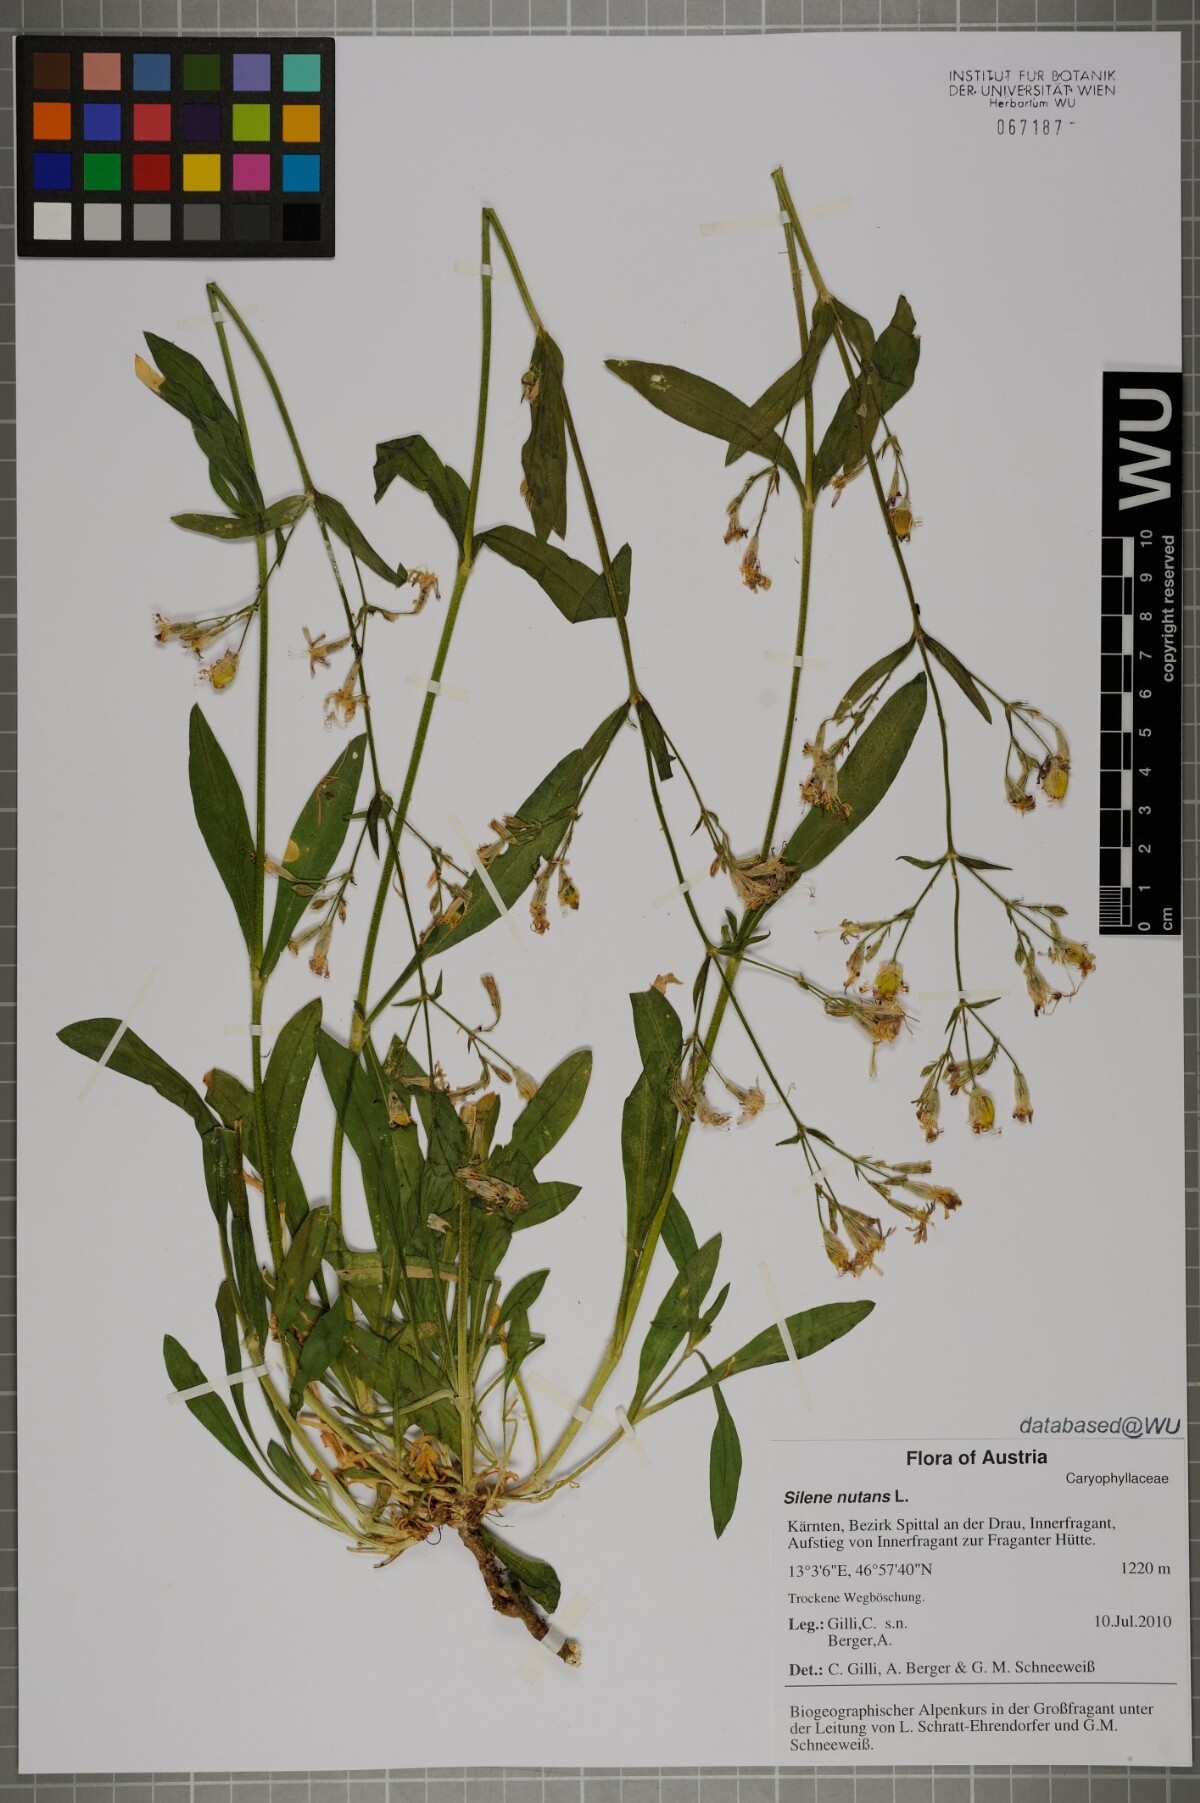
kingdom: Plantae
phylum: Tracheophyta
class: Magnoliopsida
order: Caryophyllales
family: Caryophyllaceae
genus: Silene
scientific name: Silene nutans
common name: Nottingham catchfly
